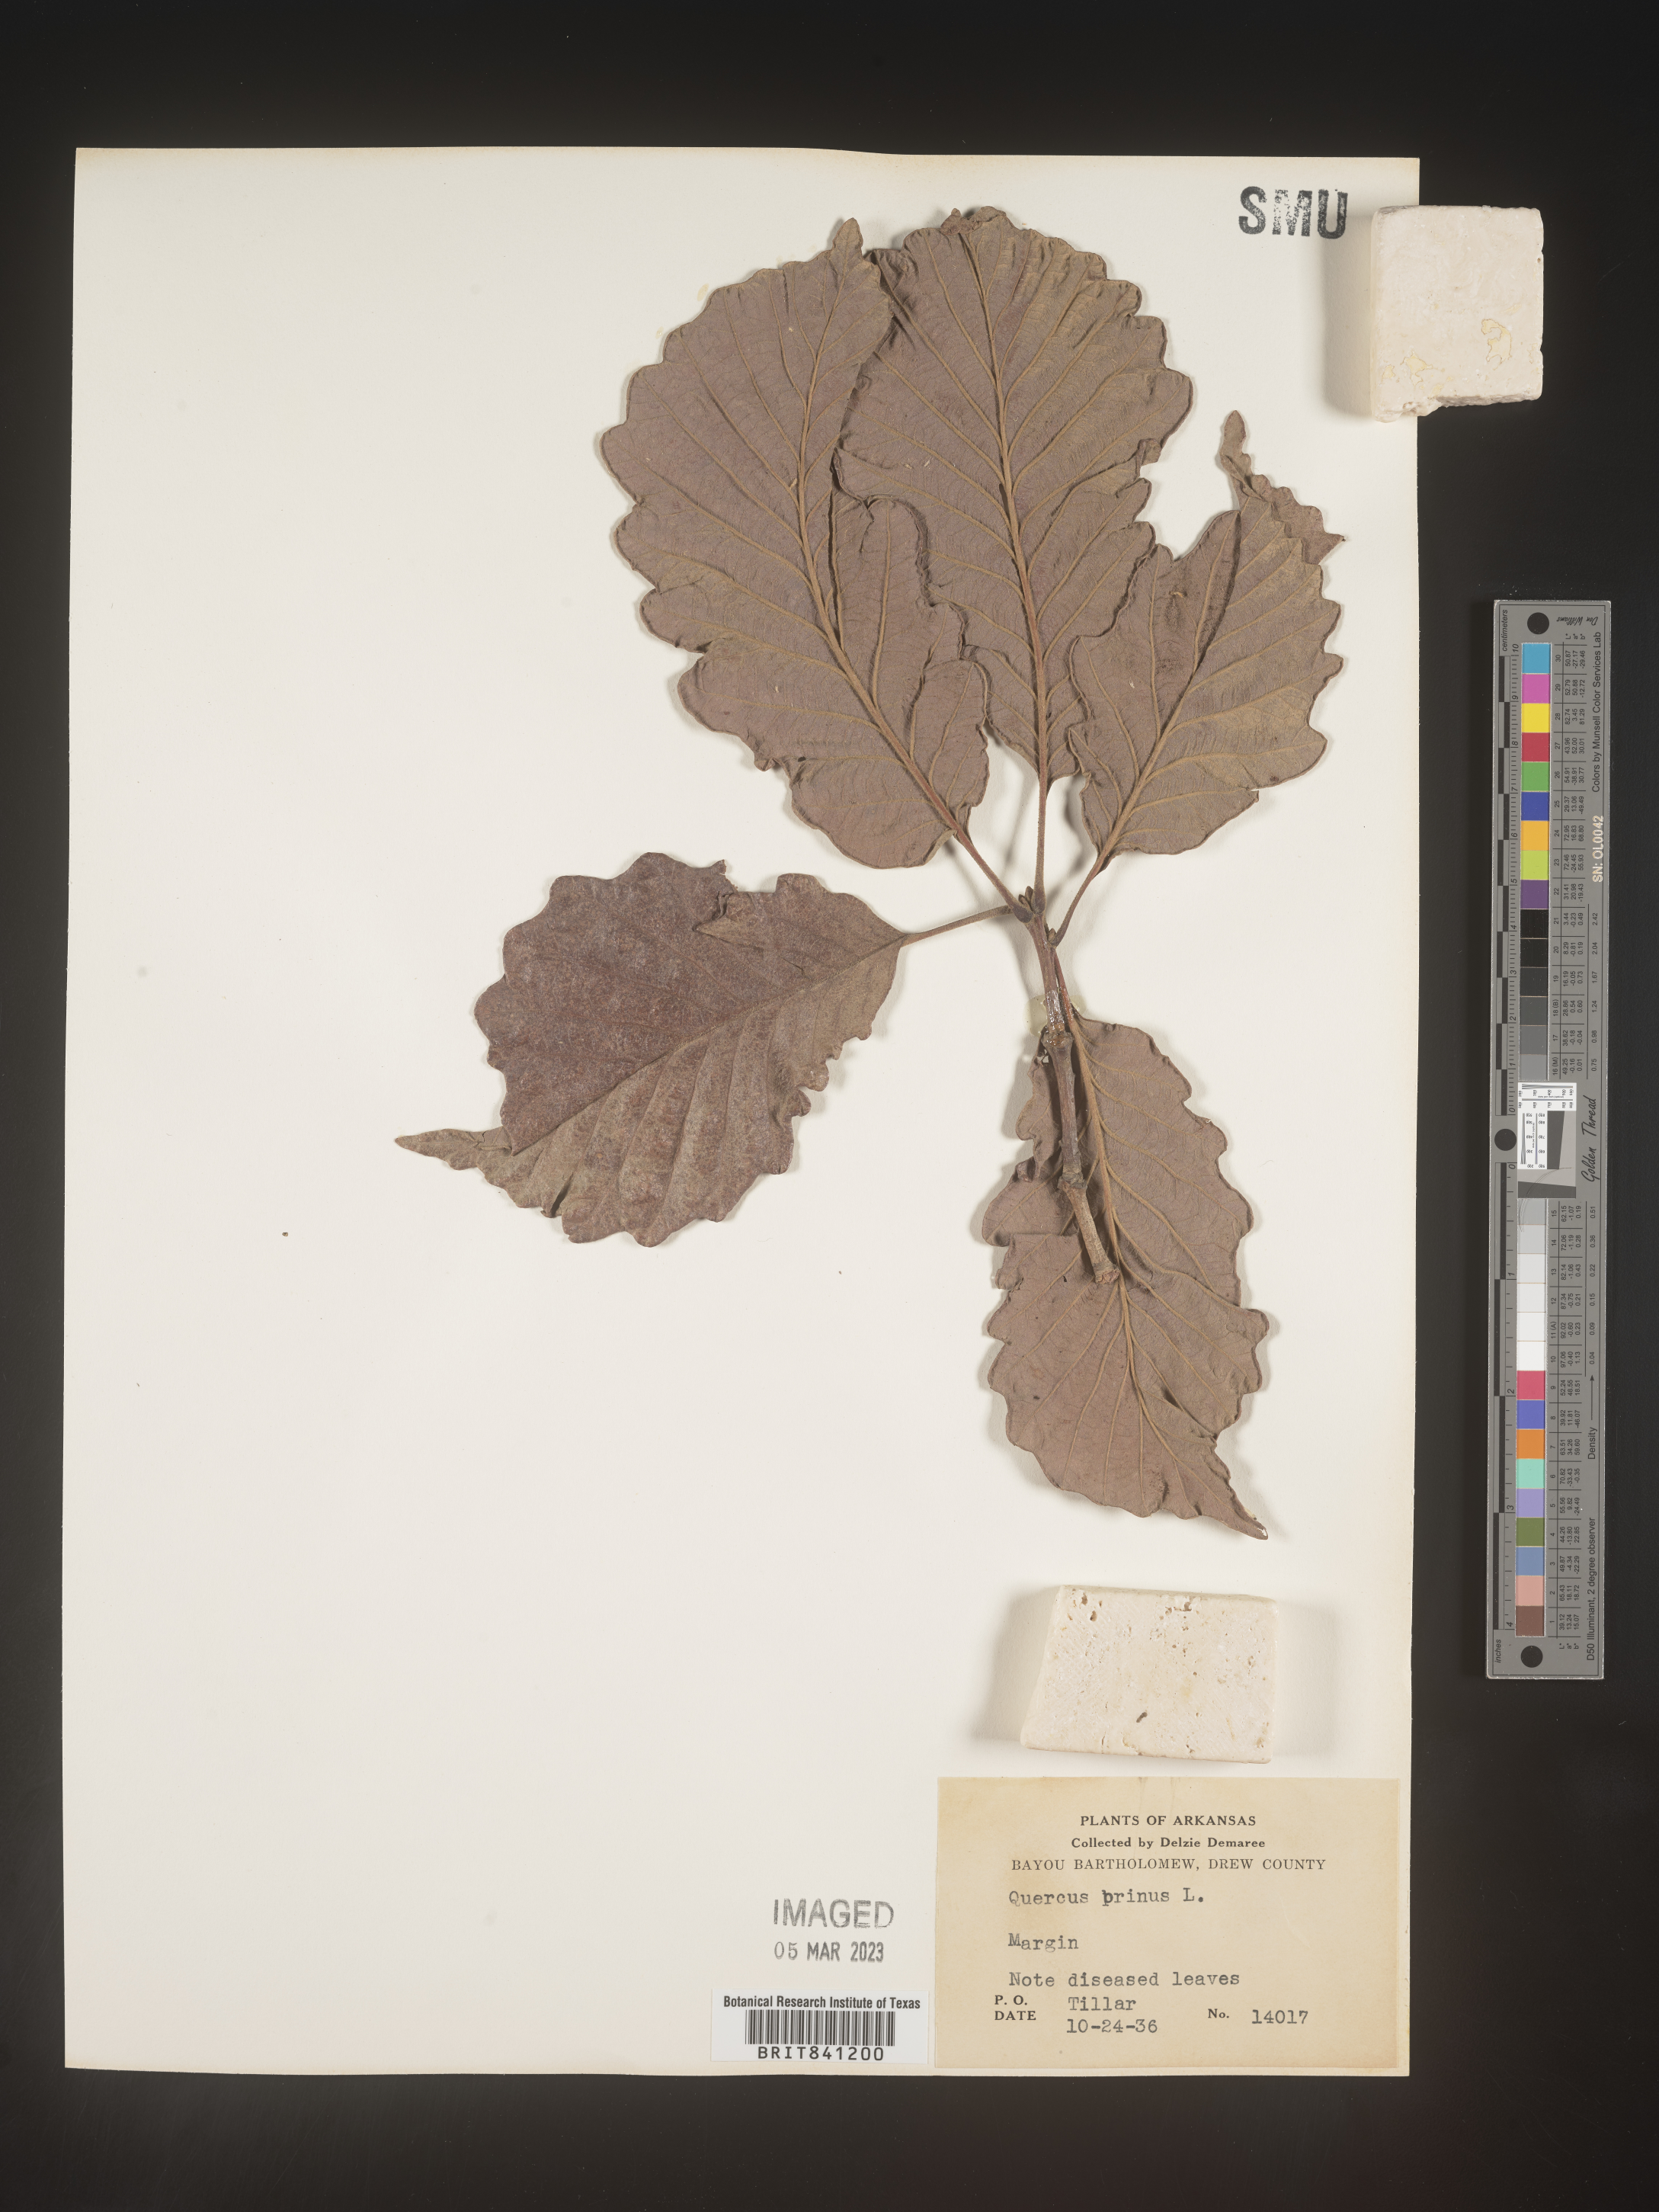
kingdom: Plantae
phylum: Tracheophyta
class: Magnoliopsida
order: Fagales
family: Fagaceae
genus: Quercus
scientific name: Quercus michauxii
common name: Swamp chestnut oak
